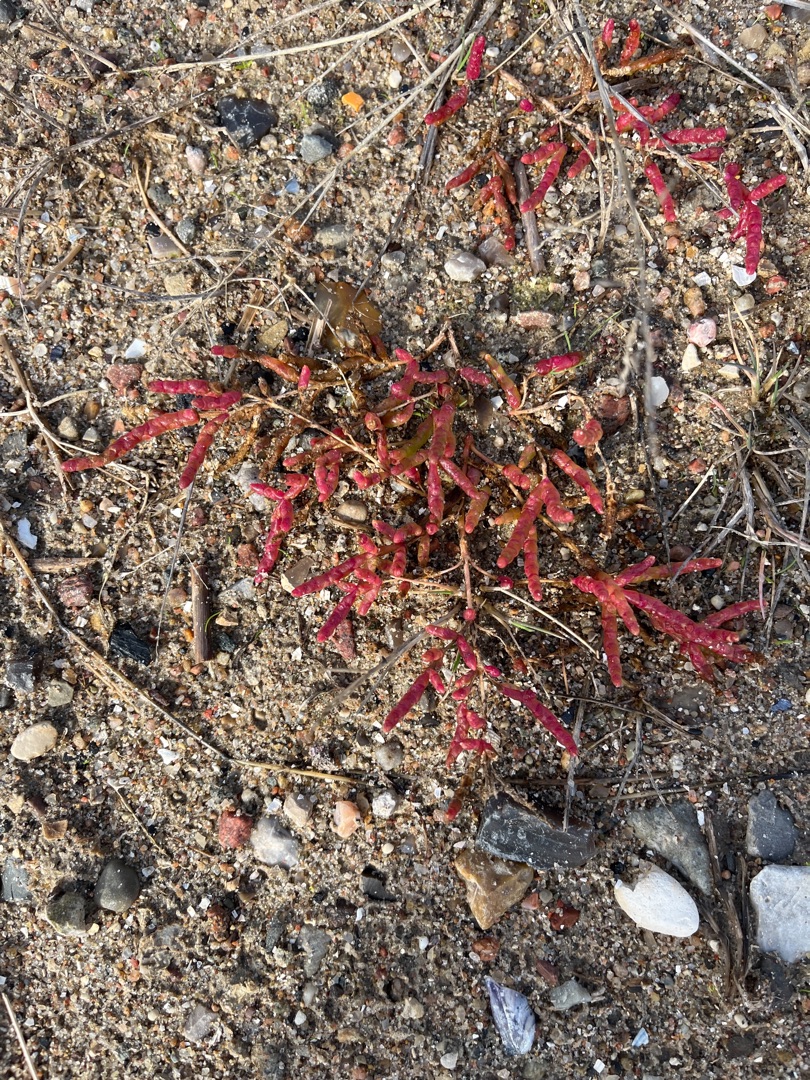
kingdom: Plantae
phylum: Tracheophyta
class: Magnoliopsida
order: Caryophyllales
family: Amaranthaceae
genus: Salicornia
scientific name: Salicornia europaea
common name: Almindelig salturt
